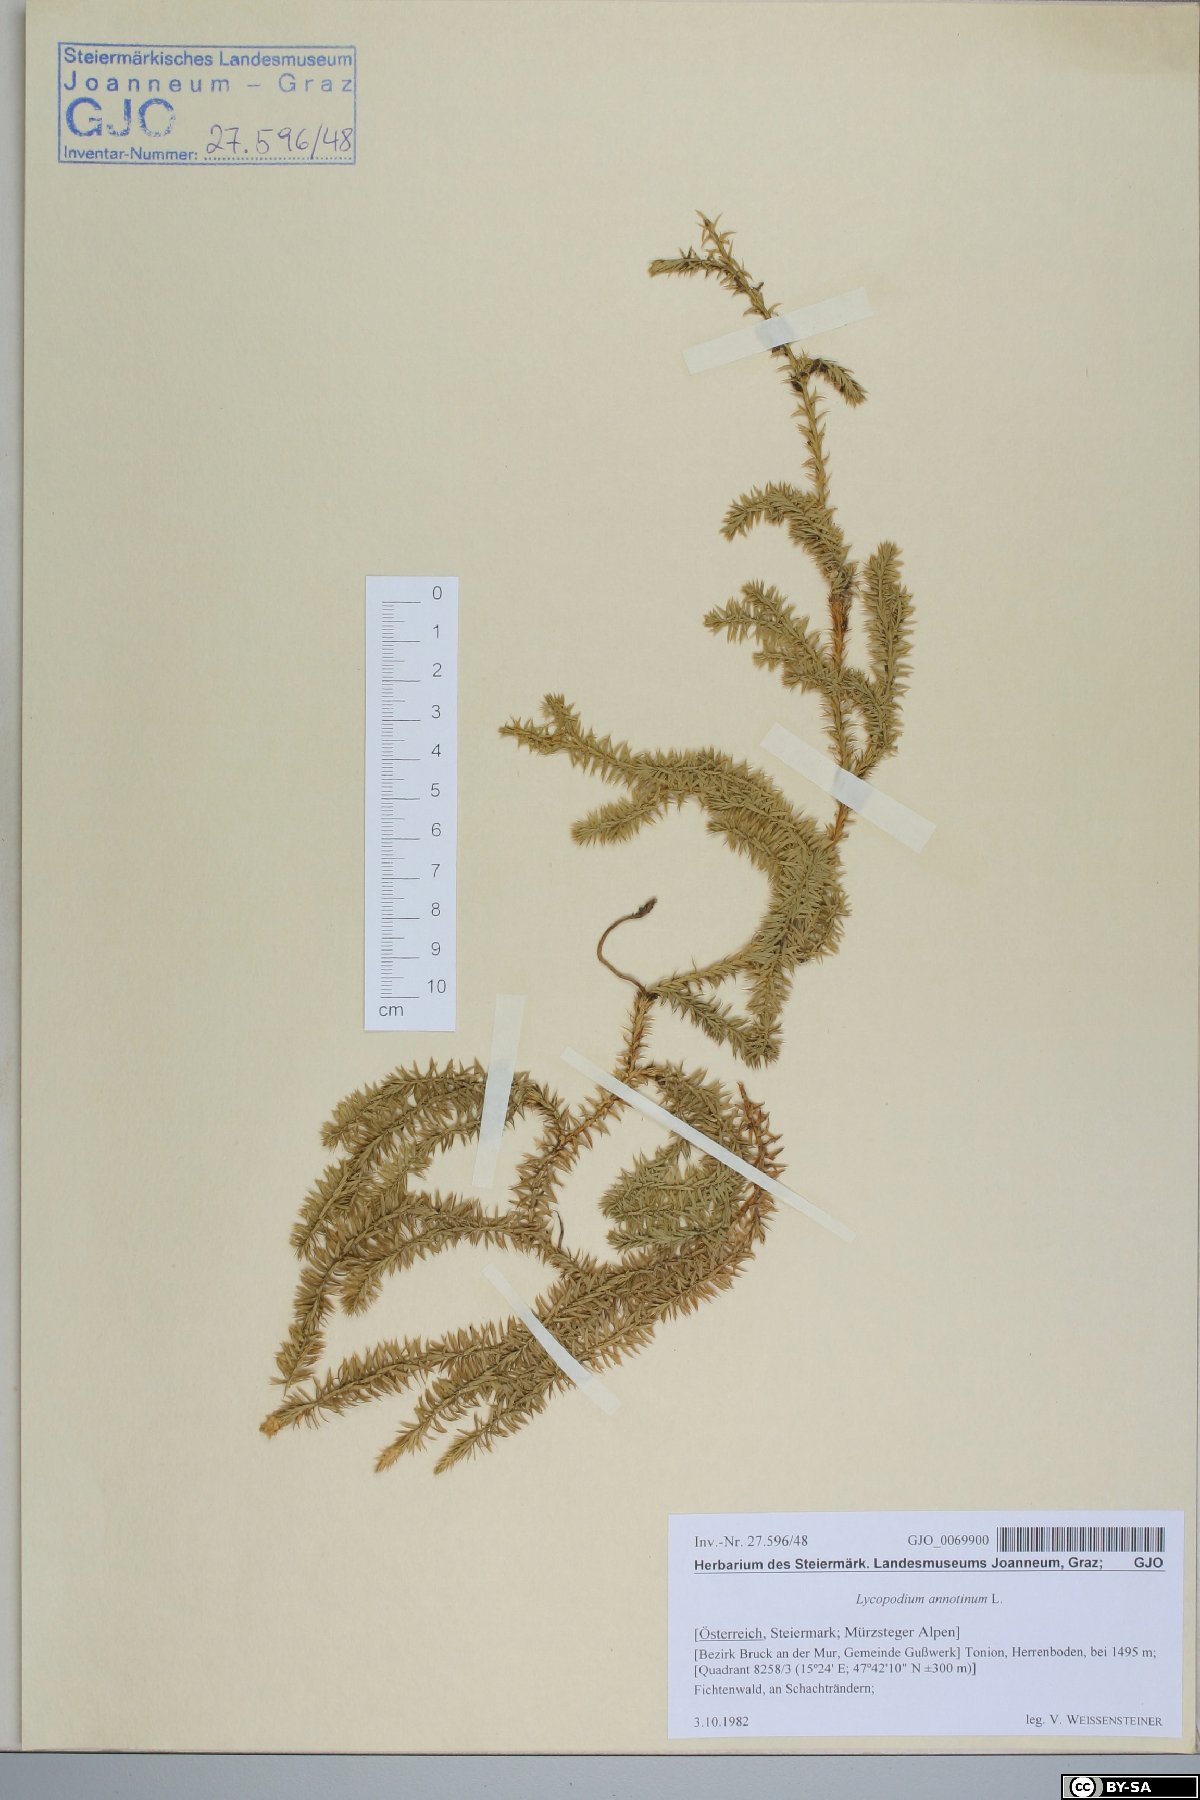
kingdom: Plantae
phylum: Tracheophyta
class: Lycopodiopsida
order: Lycopodiales
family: Lycopodiaceae
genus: Spinulum
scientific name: Spinulum annotinum
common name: Interrupted club-moss
